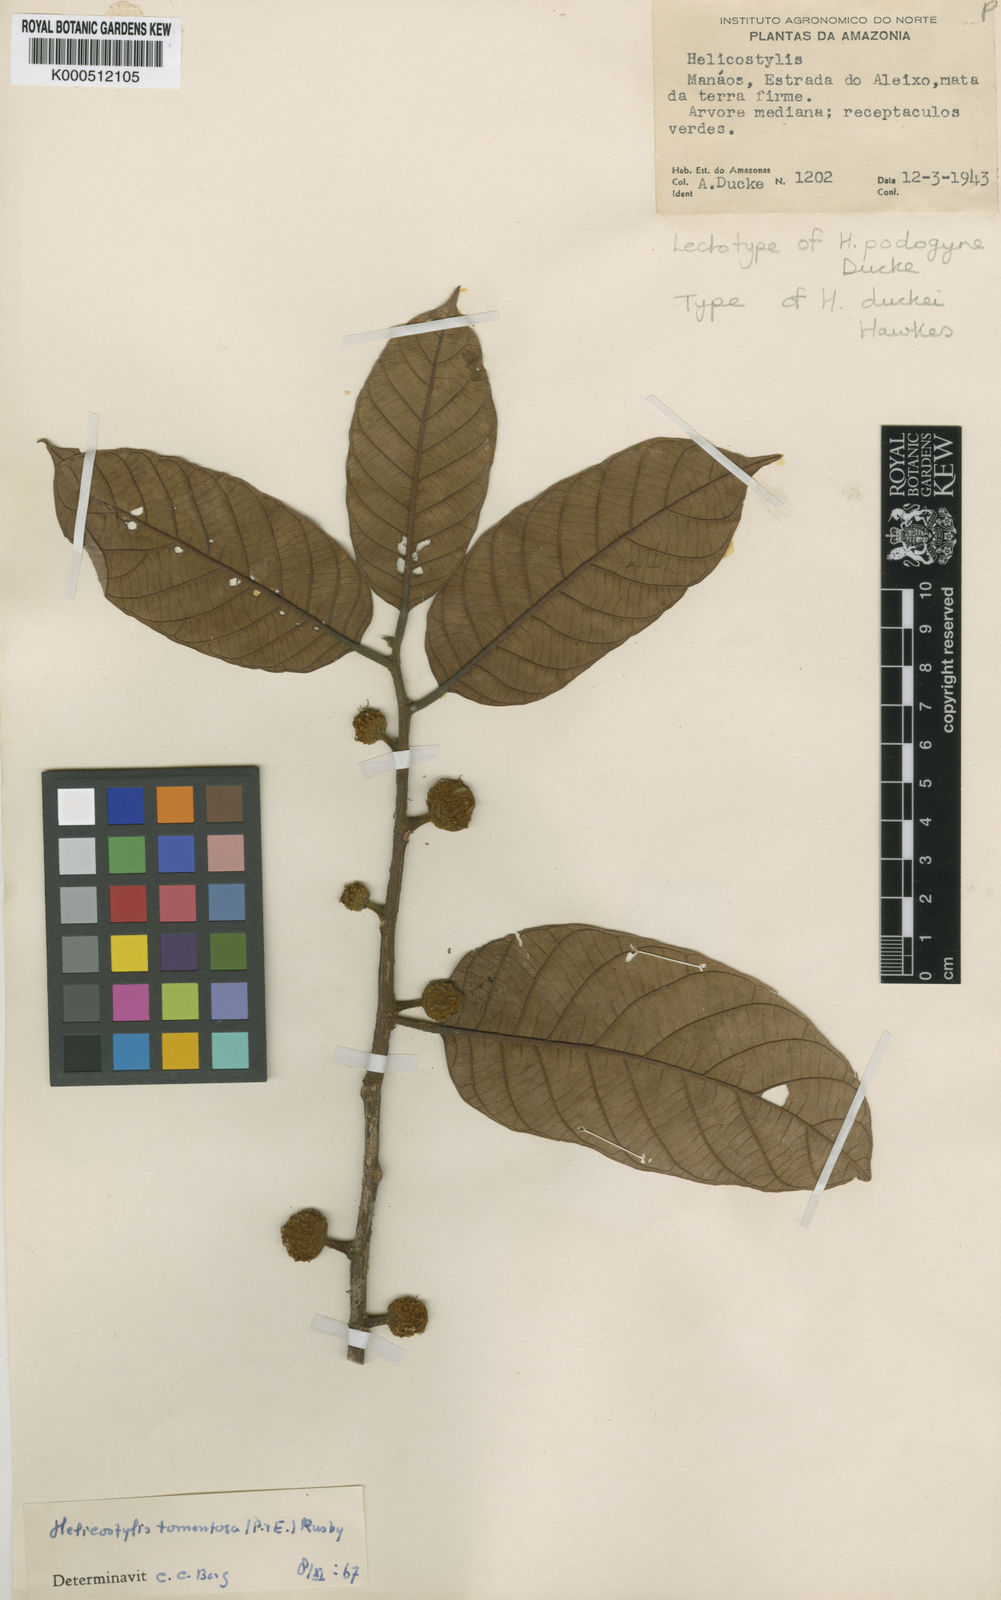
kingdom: Plantae
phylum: Tracheophyta
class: Magnoliopsida
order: Rosales
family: Moraceae
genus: Helicostylis
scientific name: Helicostylis
